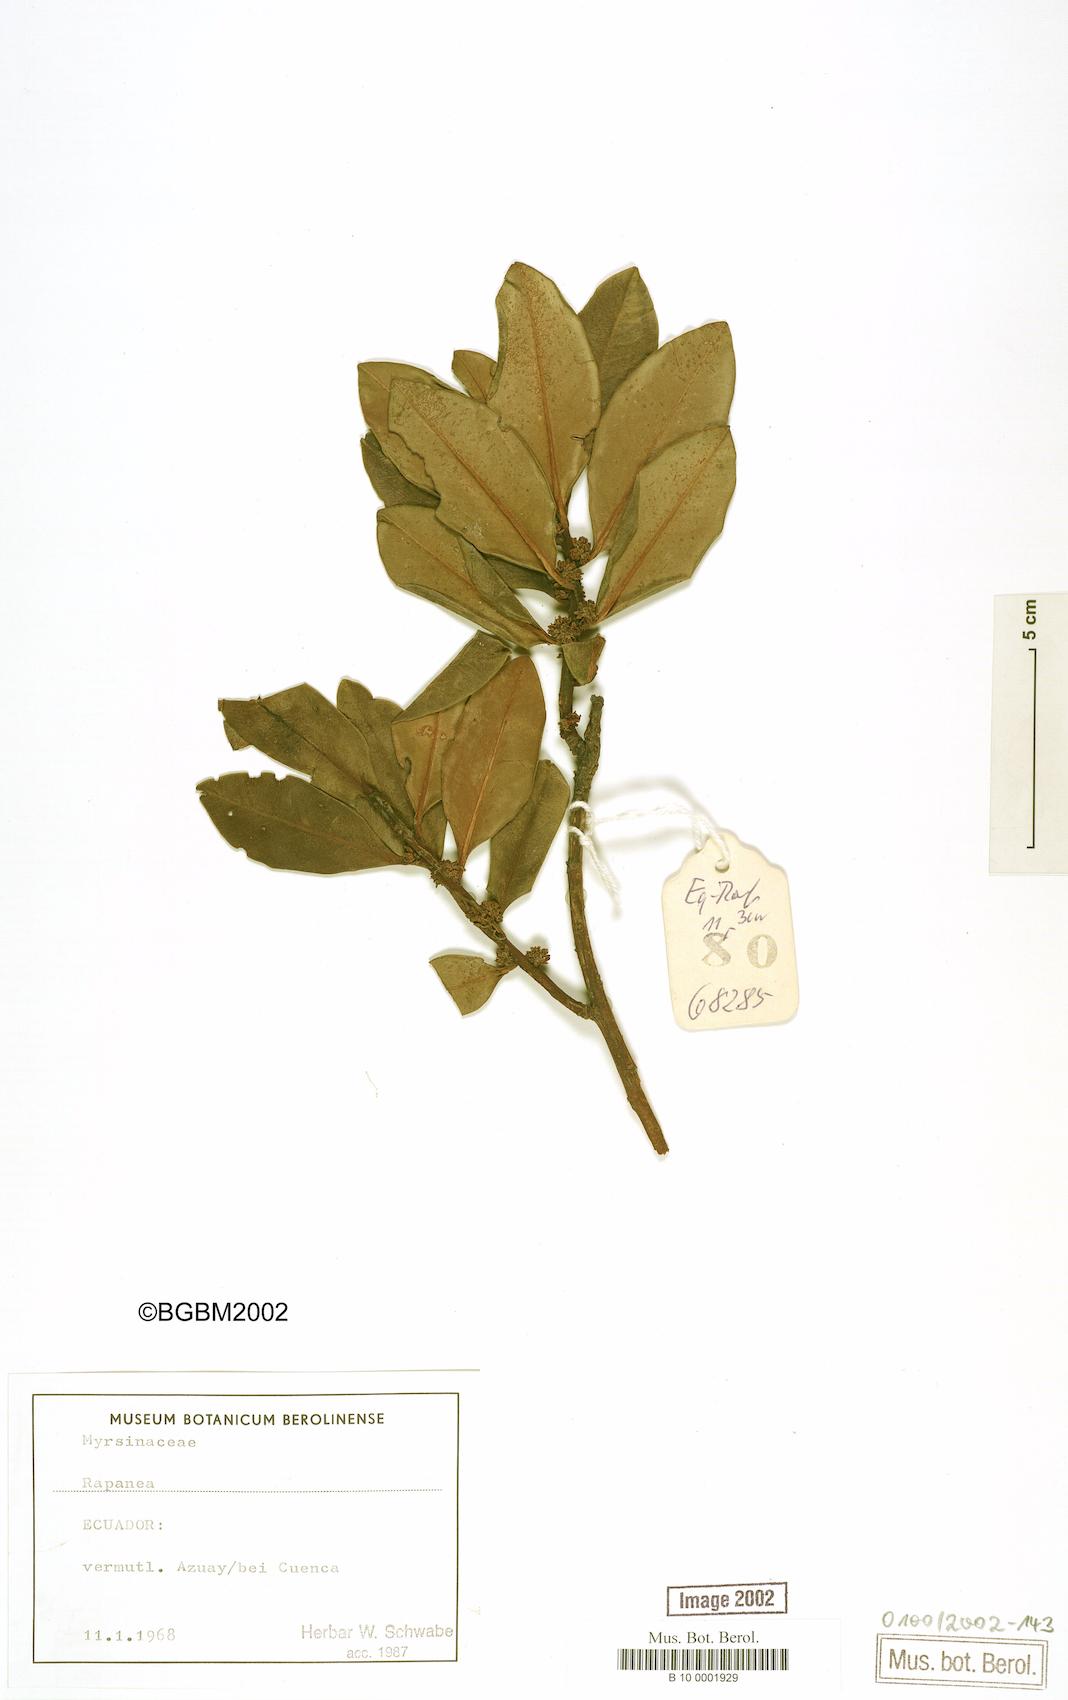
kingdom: Plantae
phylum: Tracheophyta
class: Magnoliopsida
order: Ericales
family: Primulaceae
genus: Myrsine
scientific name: Myrsine
